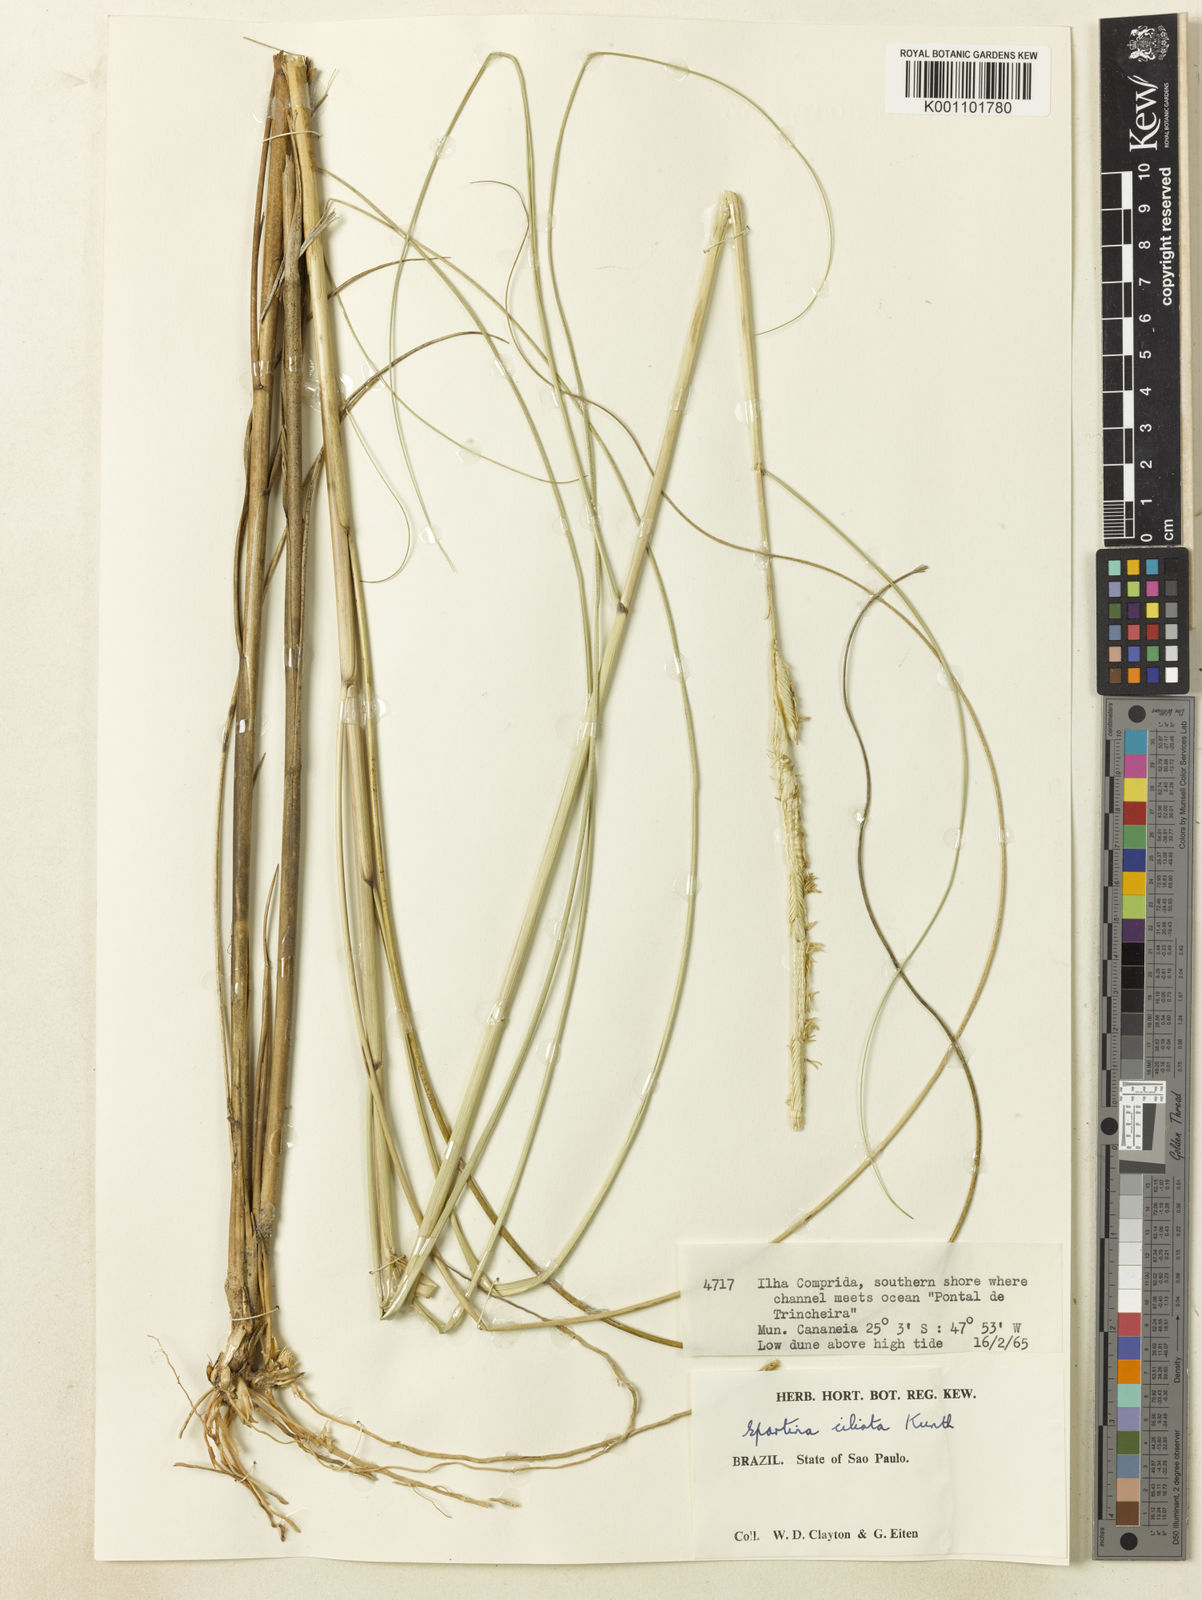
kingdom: Plantae
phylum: Tracheophyta
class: Liliopsida
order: Poales
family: Poaceae
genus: Sporobolus
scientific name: Sporobolus coarctatus
